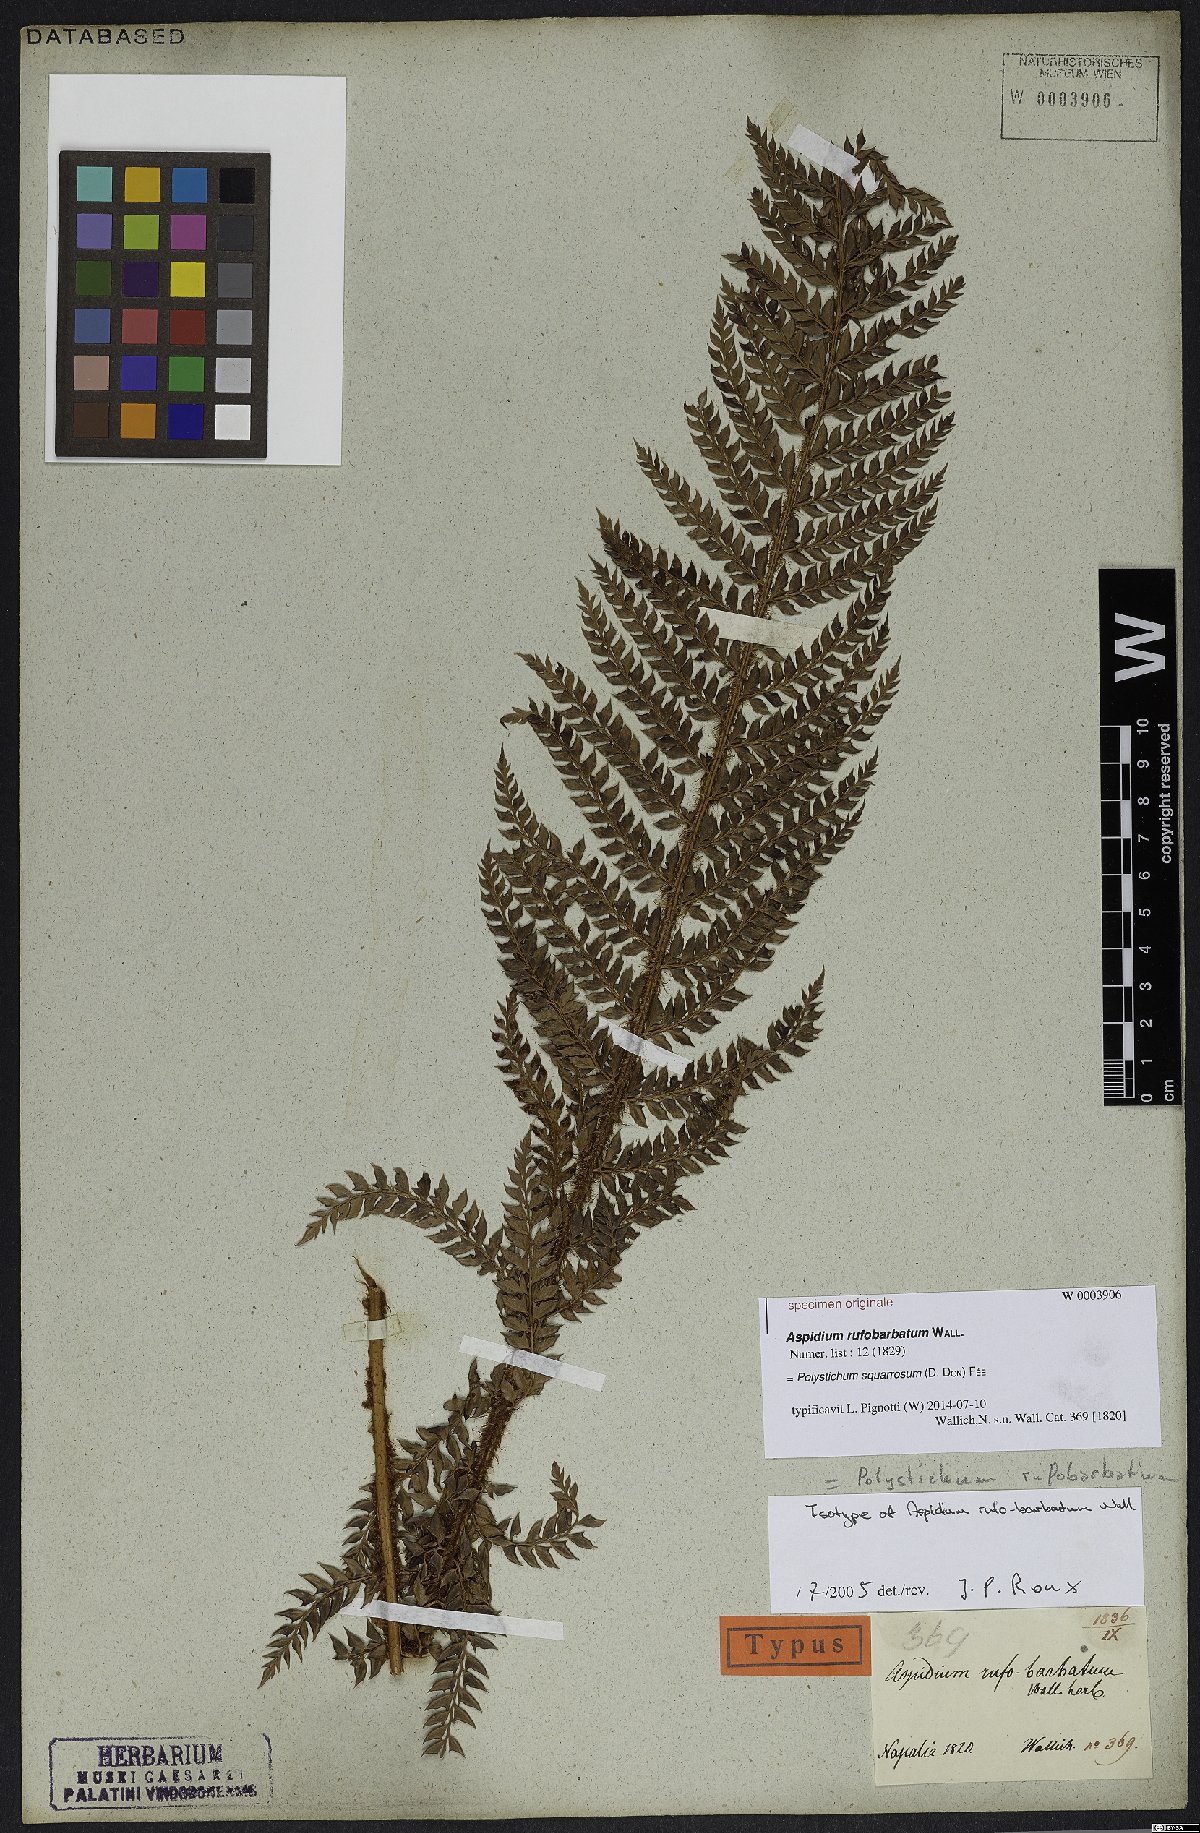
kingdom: Plantae
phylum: Tracheophyta
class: Polypodiopsida
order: Polypodiales
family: Dryopteridaceae
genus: Polystichum
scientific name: Polystichum squarrosum
